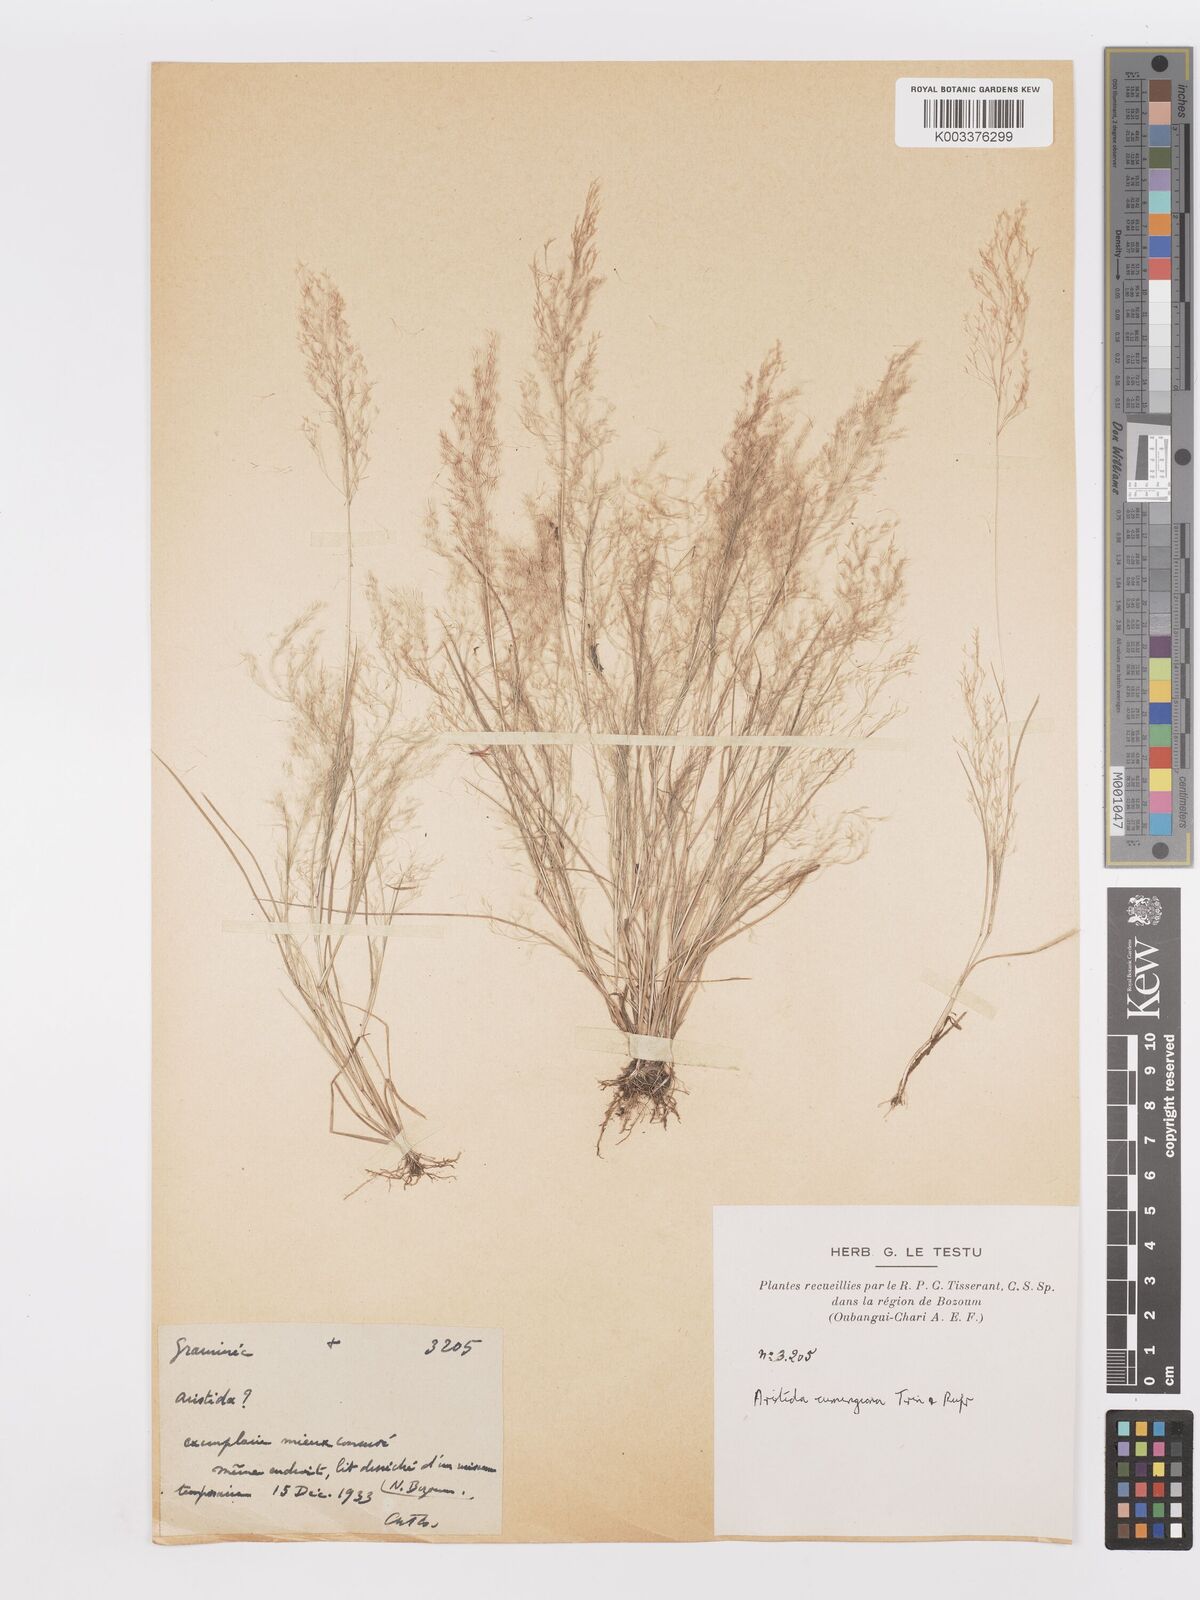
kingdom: Plantae
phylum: Tracheophyta
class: Liliopsida
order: Poales
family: Poaceae
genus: Aristida
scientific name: Aristida cumingiana
